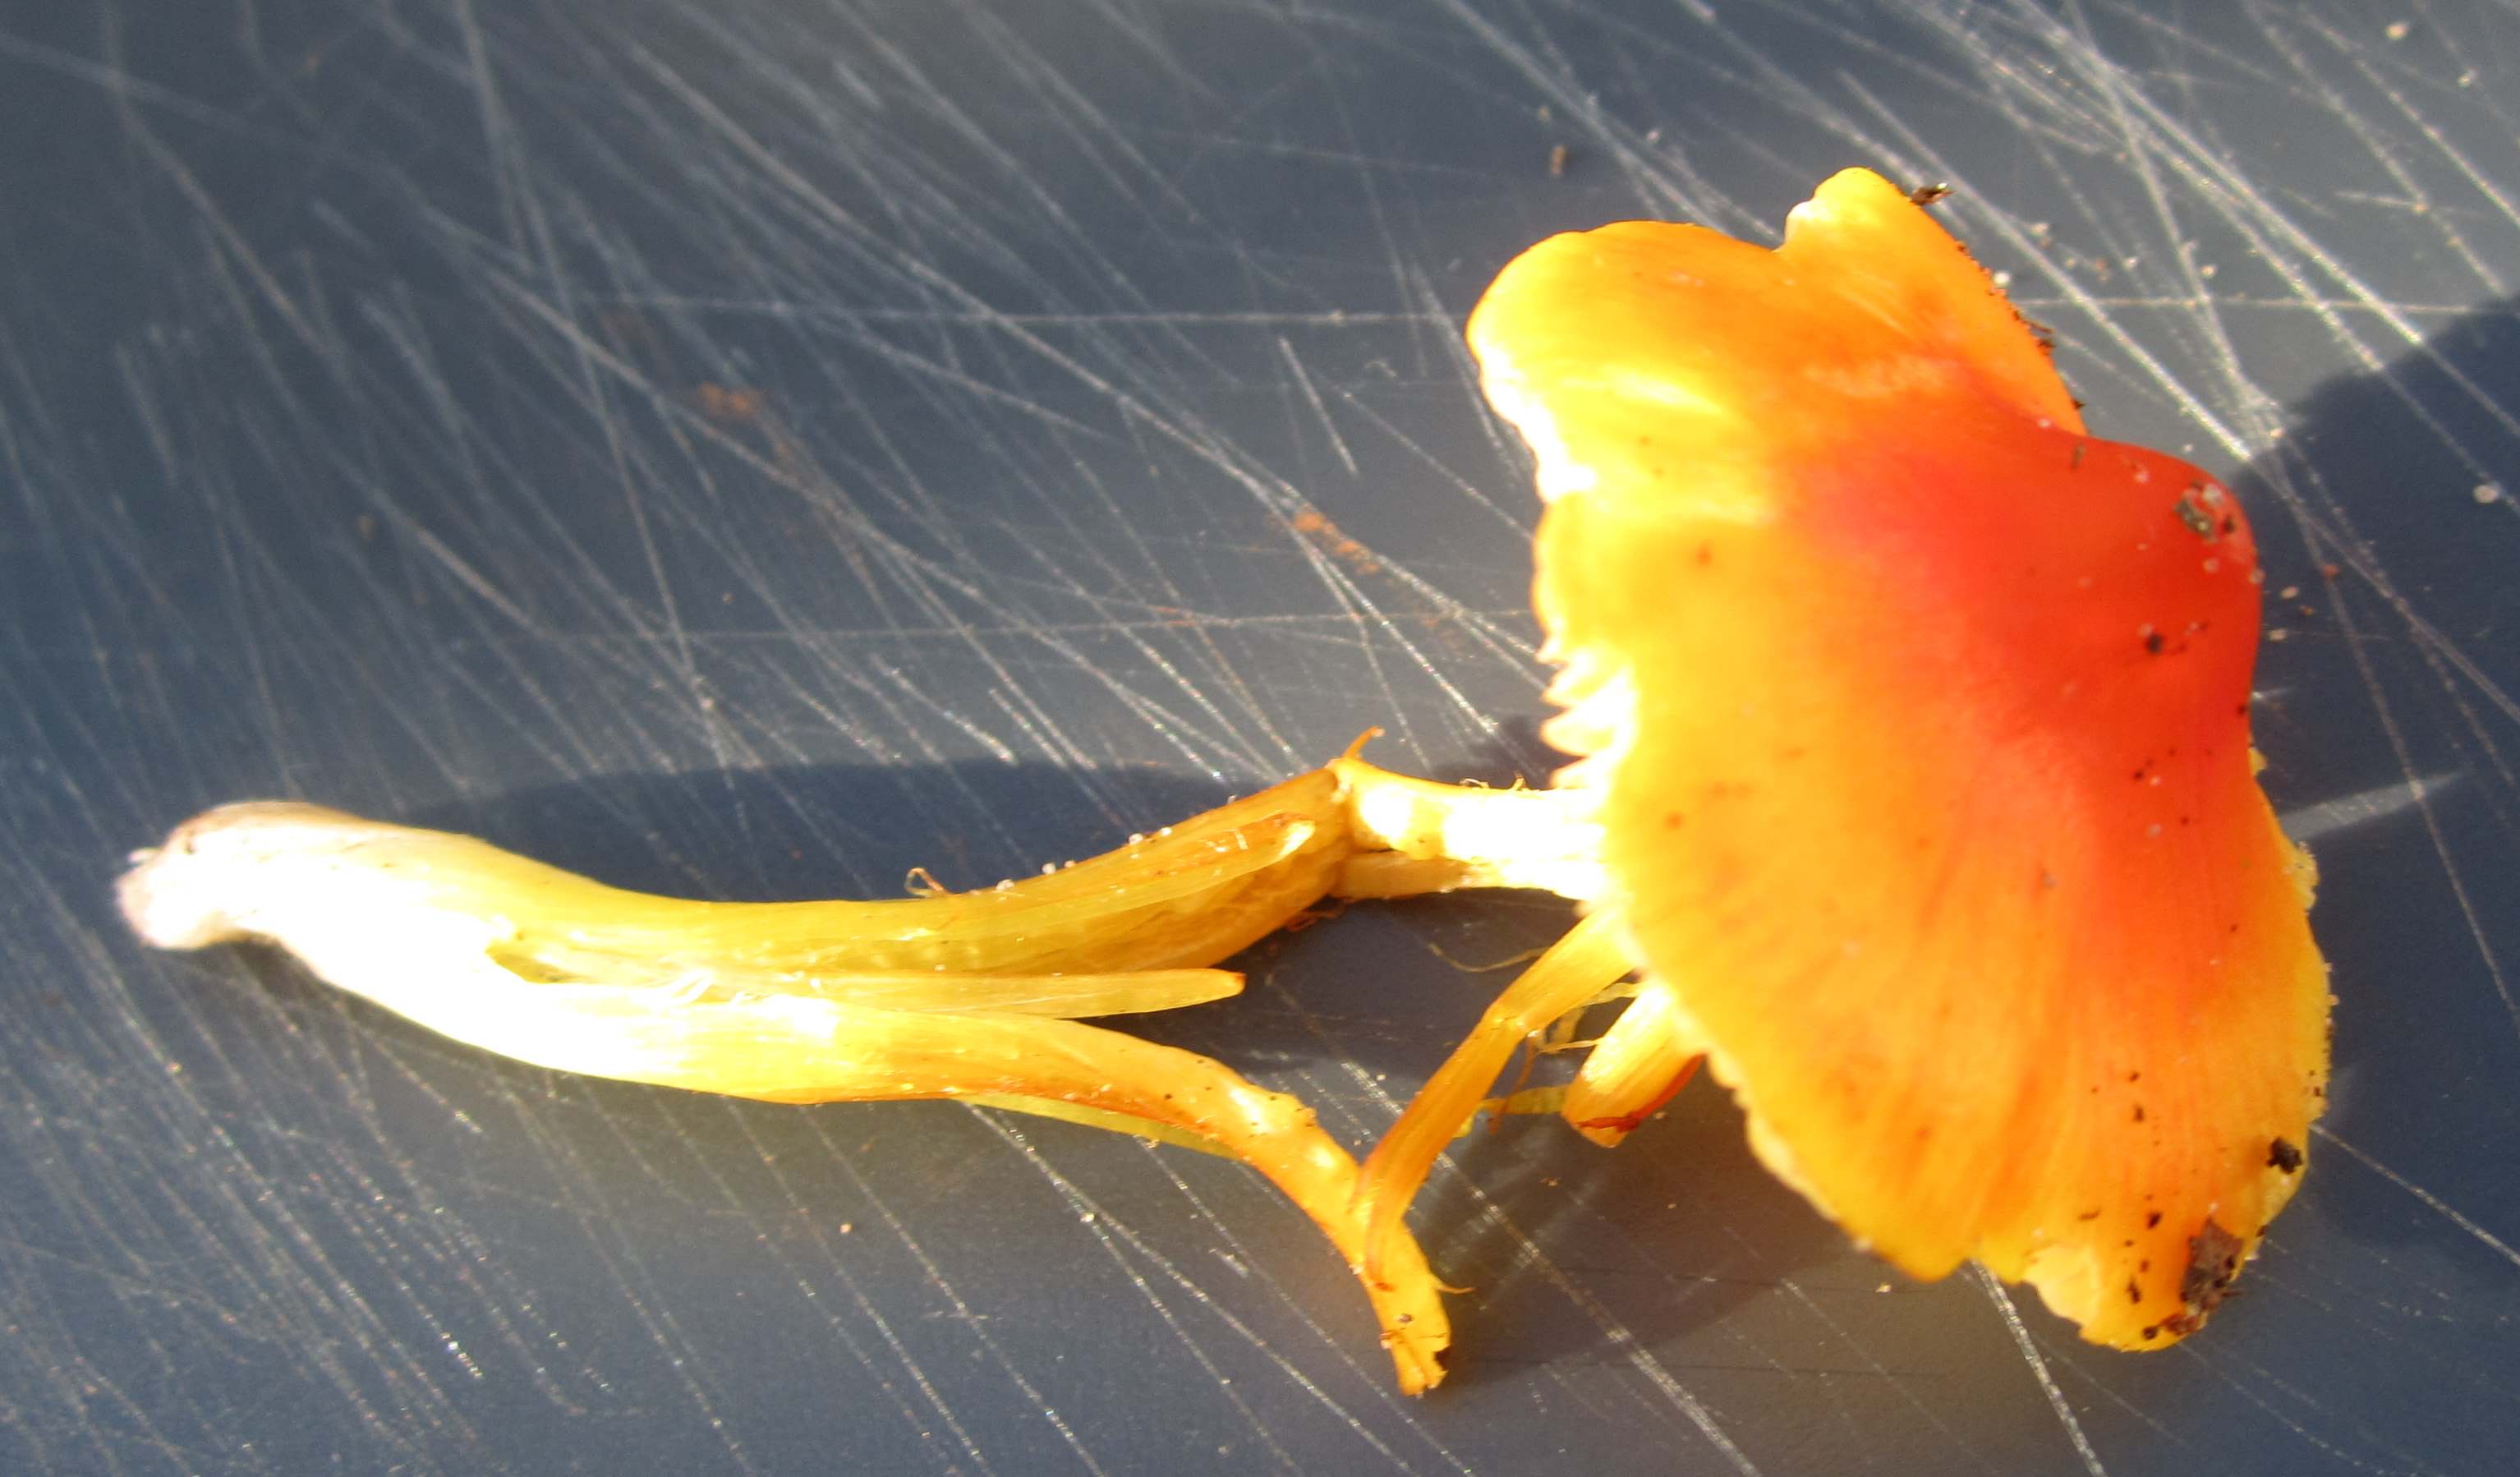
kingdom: Fungi
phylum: Basidiomycota
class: Agaricomycetes
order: Agaricales
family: Hygrophoraceae
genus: Hygrocybe
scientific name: Hygrocybe acutoconica
